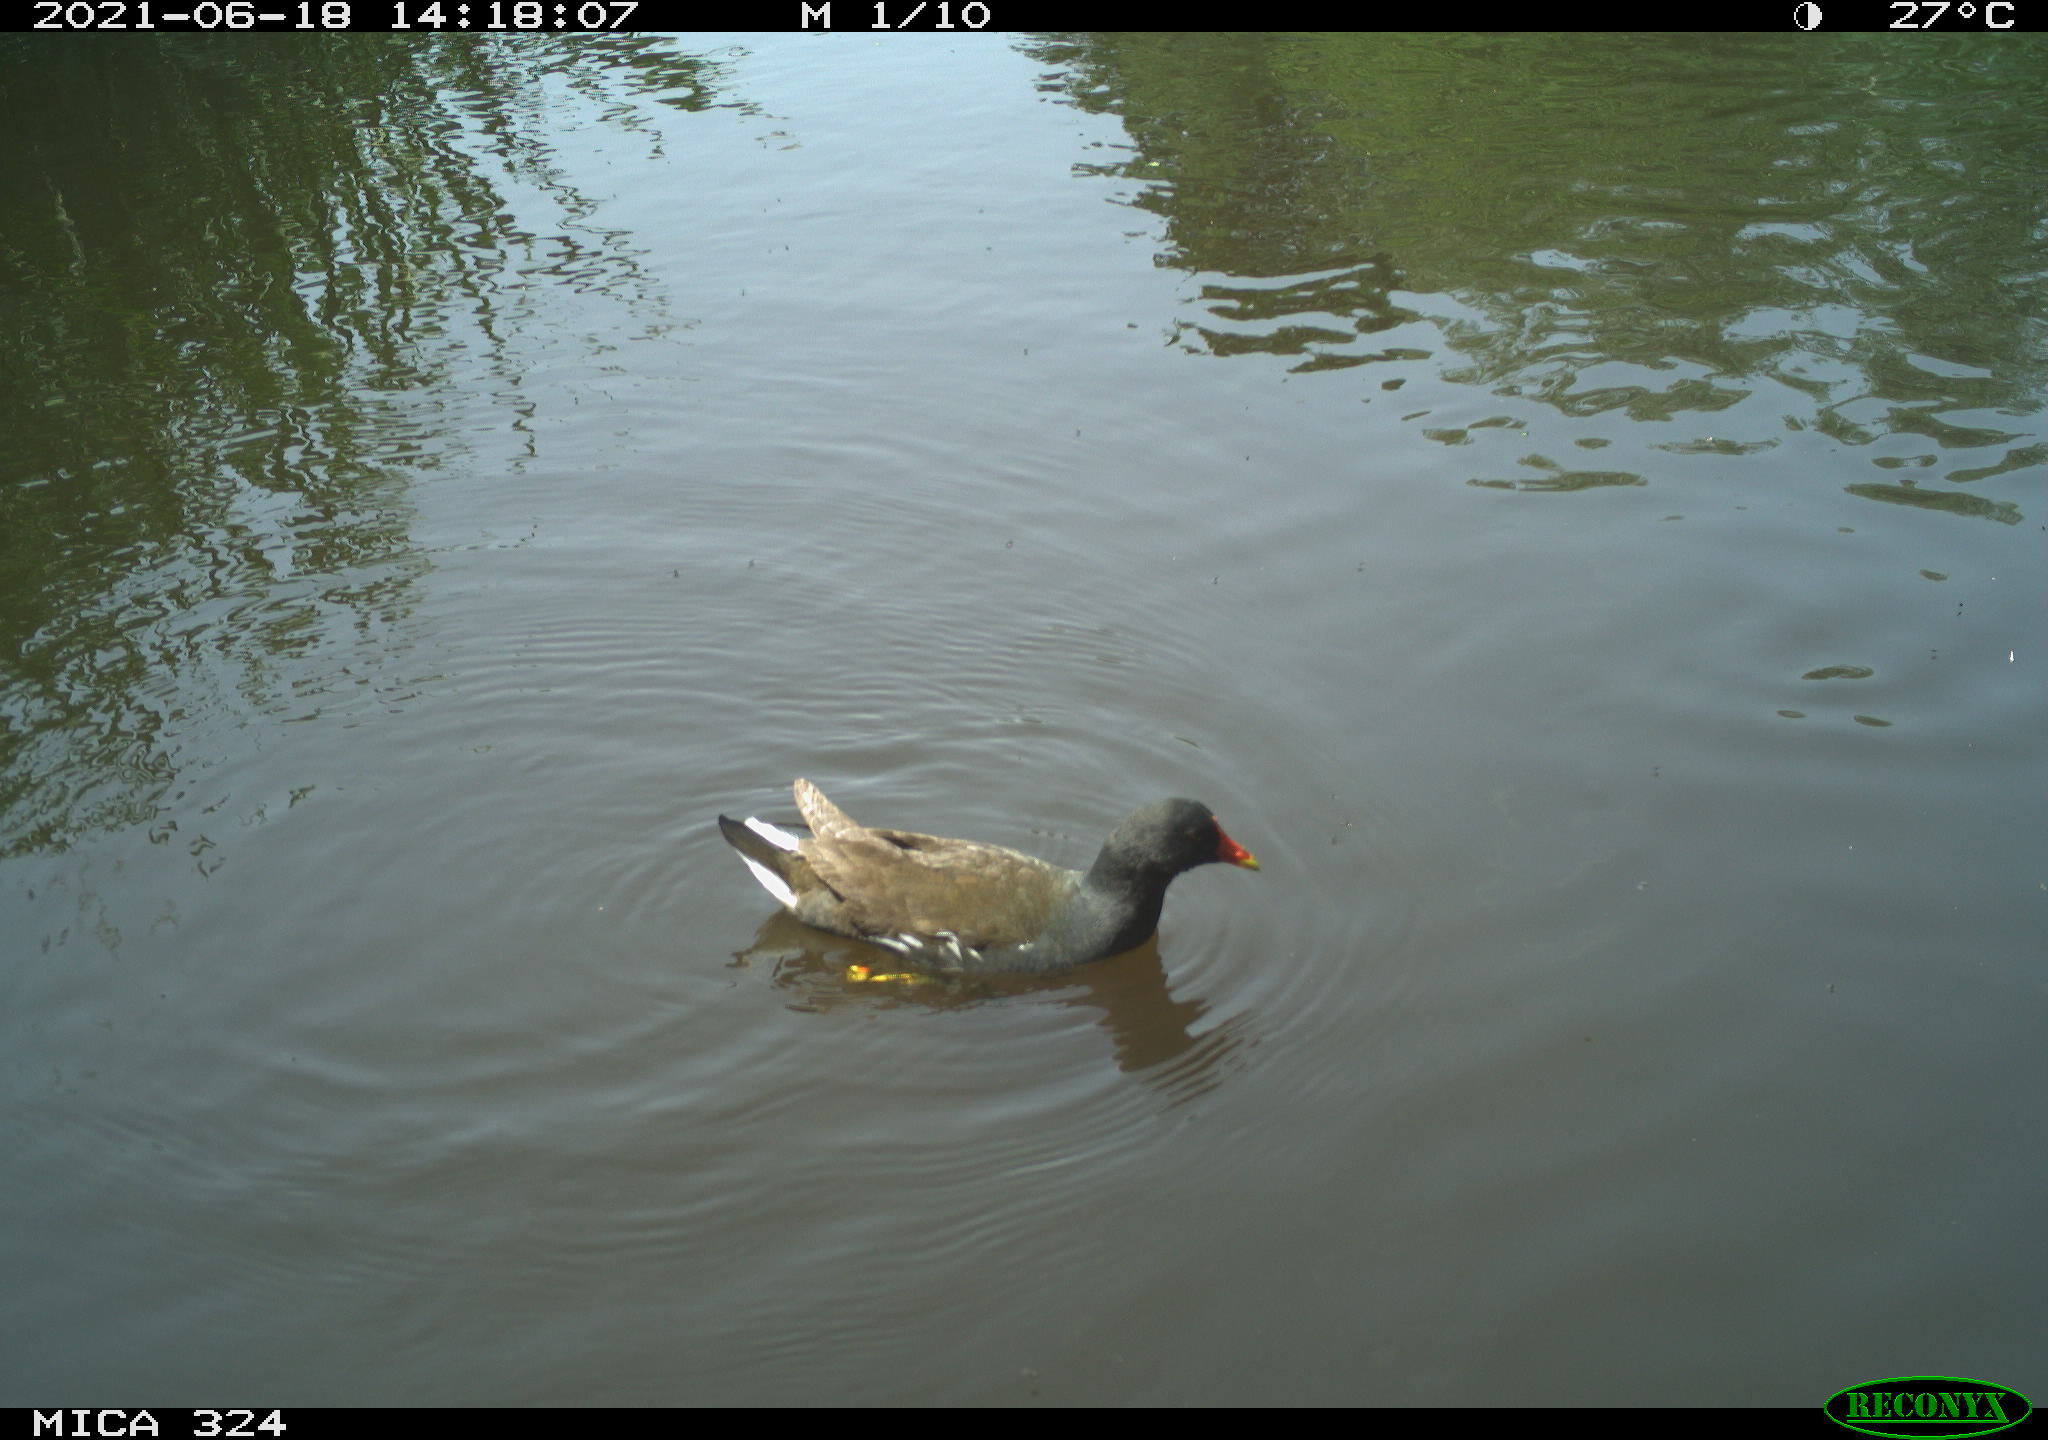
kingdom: Animalia
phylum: Chordata
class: Aves
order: Gruiformes
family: Rallidae
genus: Gallinula
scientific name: Gallinula chloropus
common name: Common moorhen
